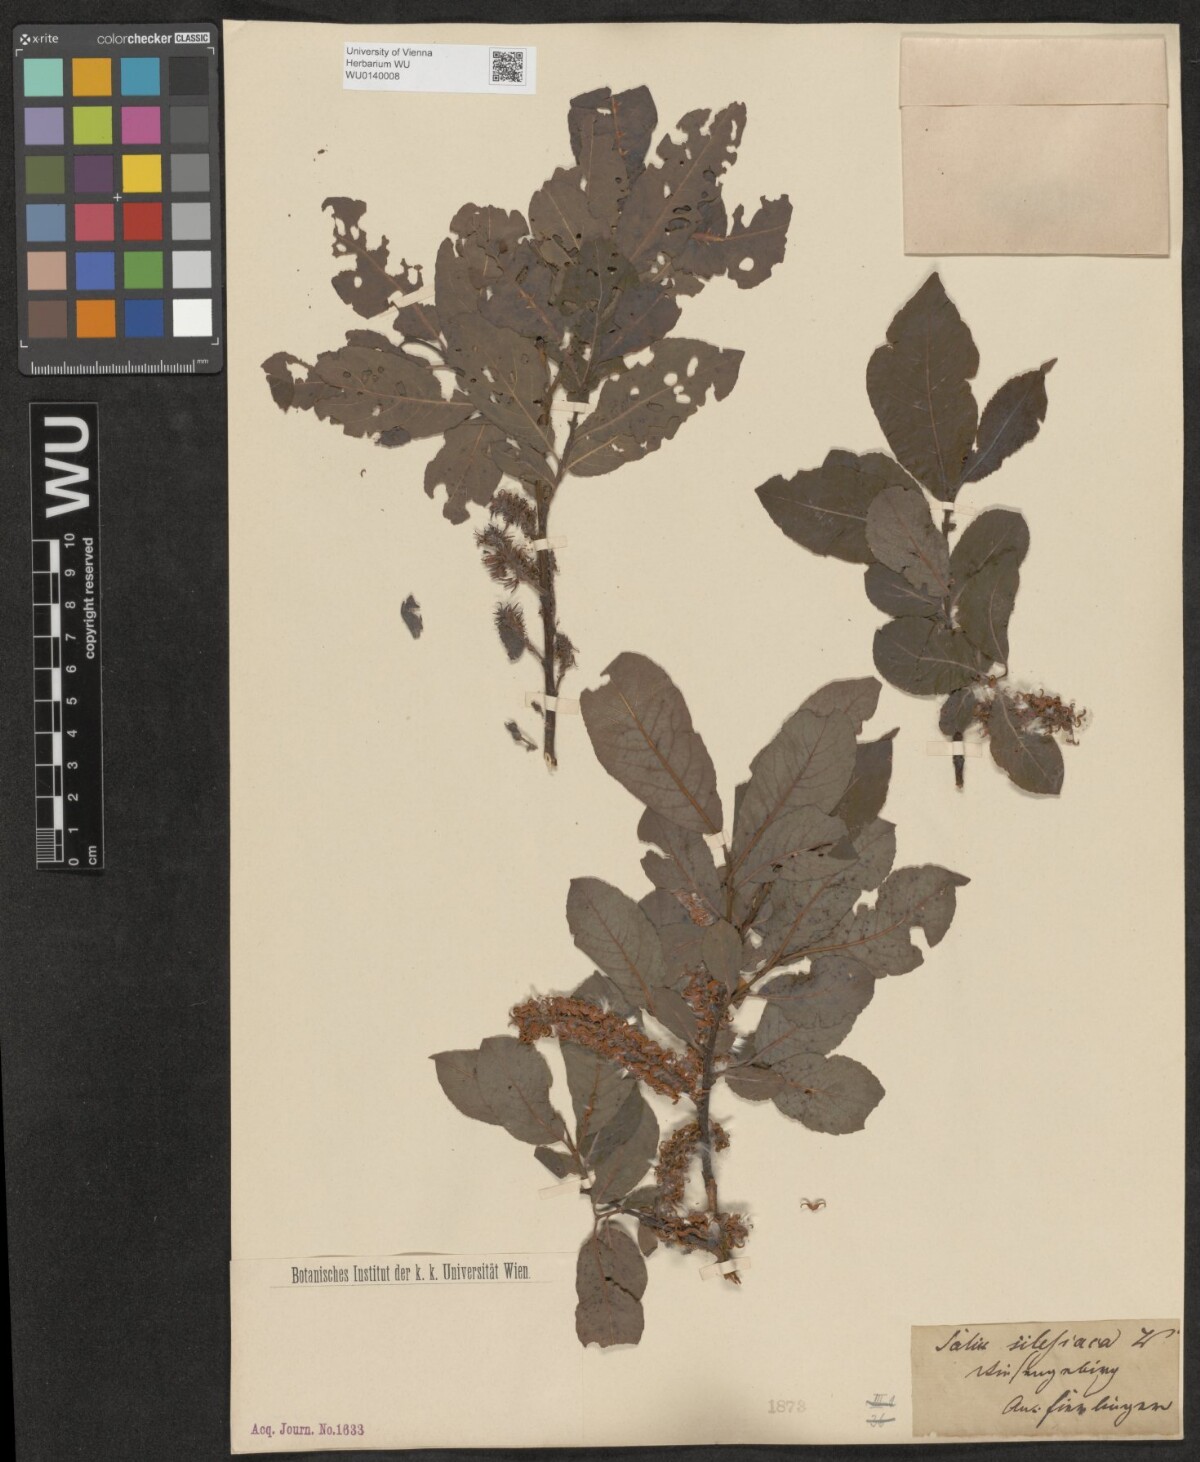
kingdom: Plantae
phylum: Tracheophyta
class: Magnoliopsida
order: Malpighiales
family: Salicaceae
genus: Salix
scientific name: Salix silesiaca
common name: Silesian willow
